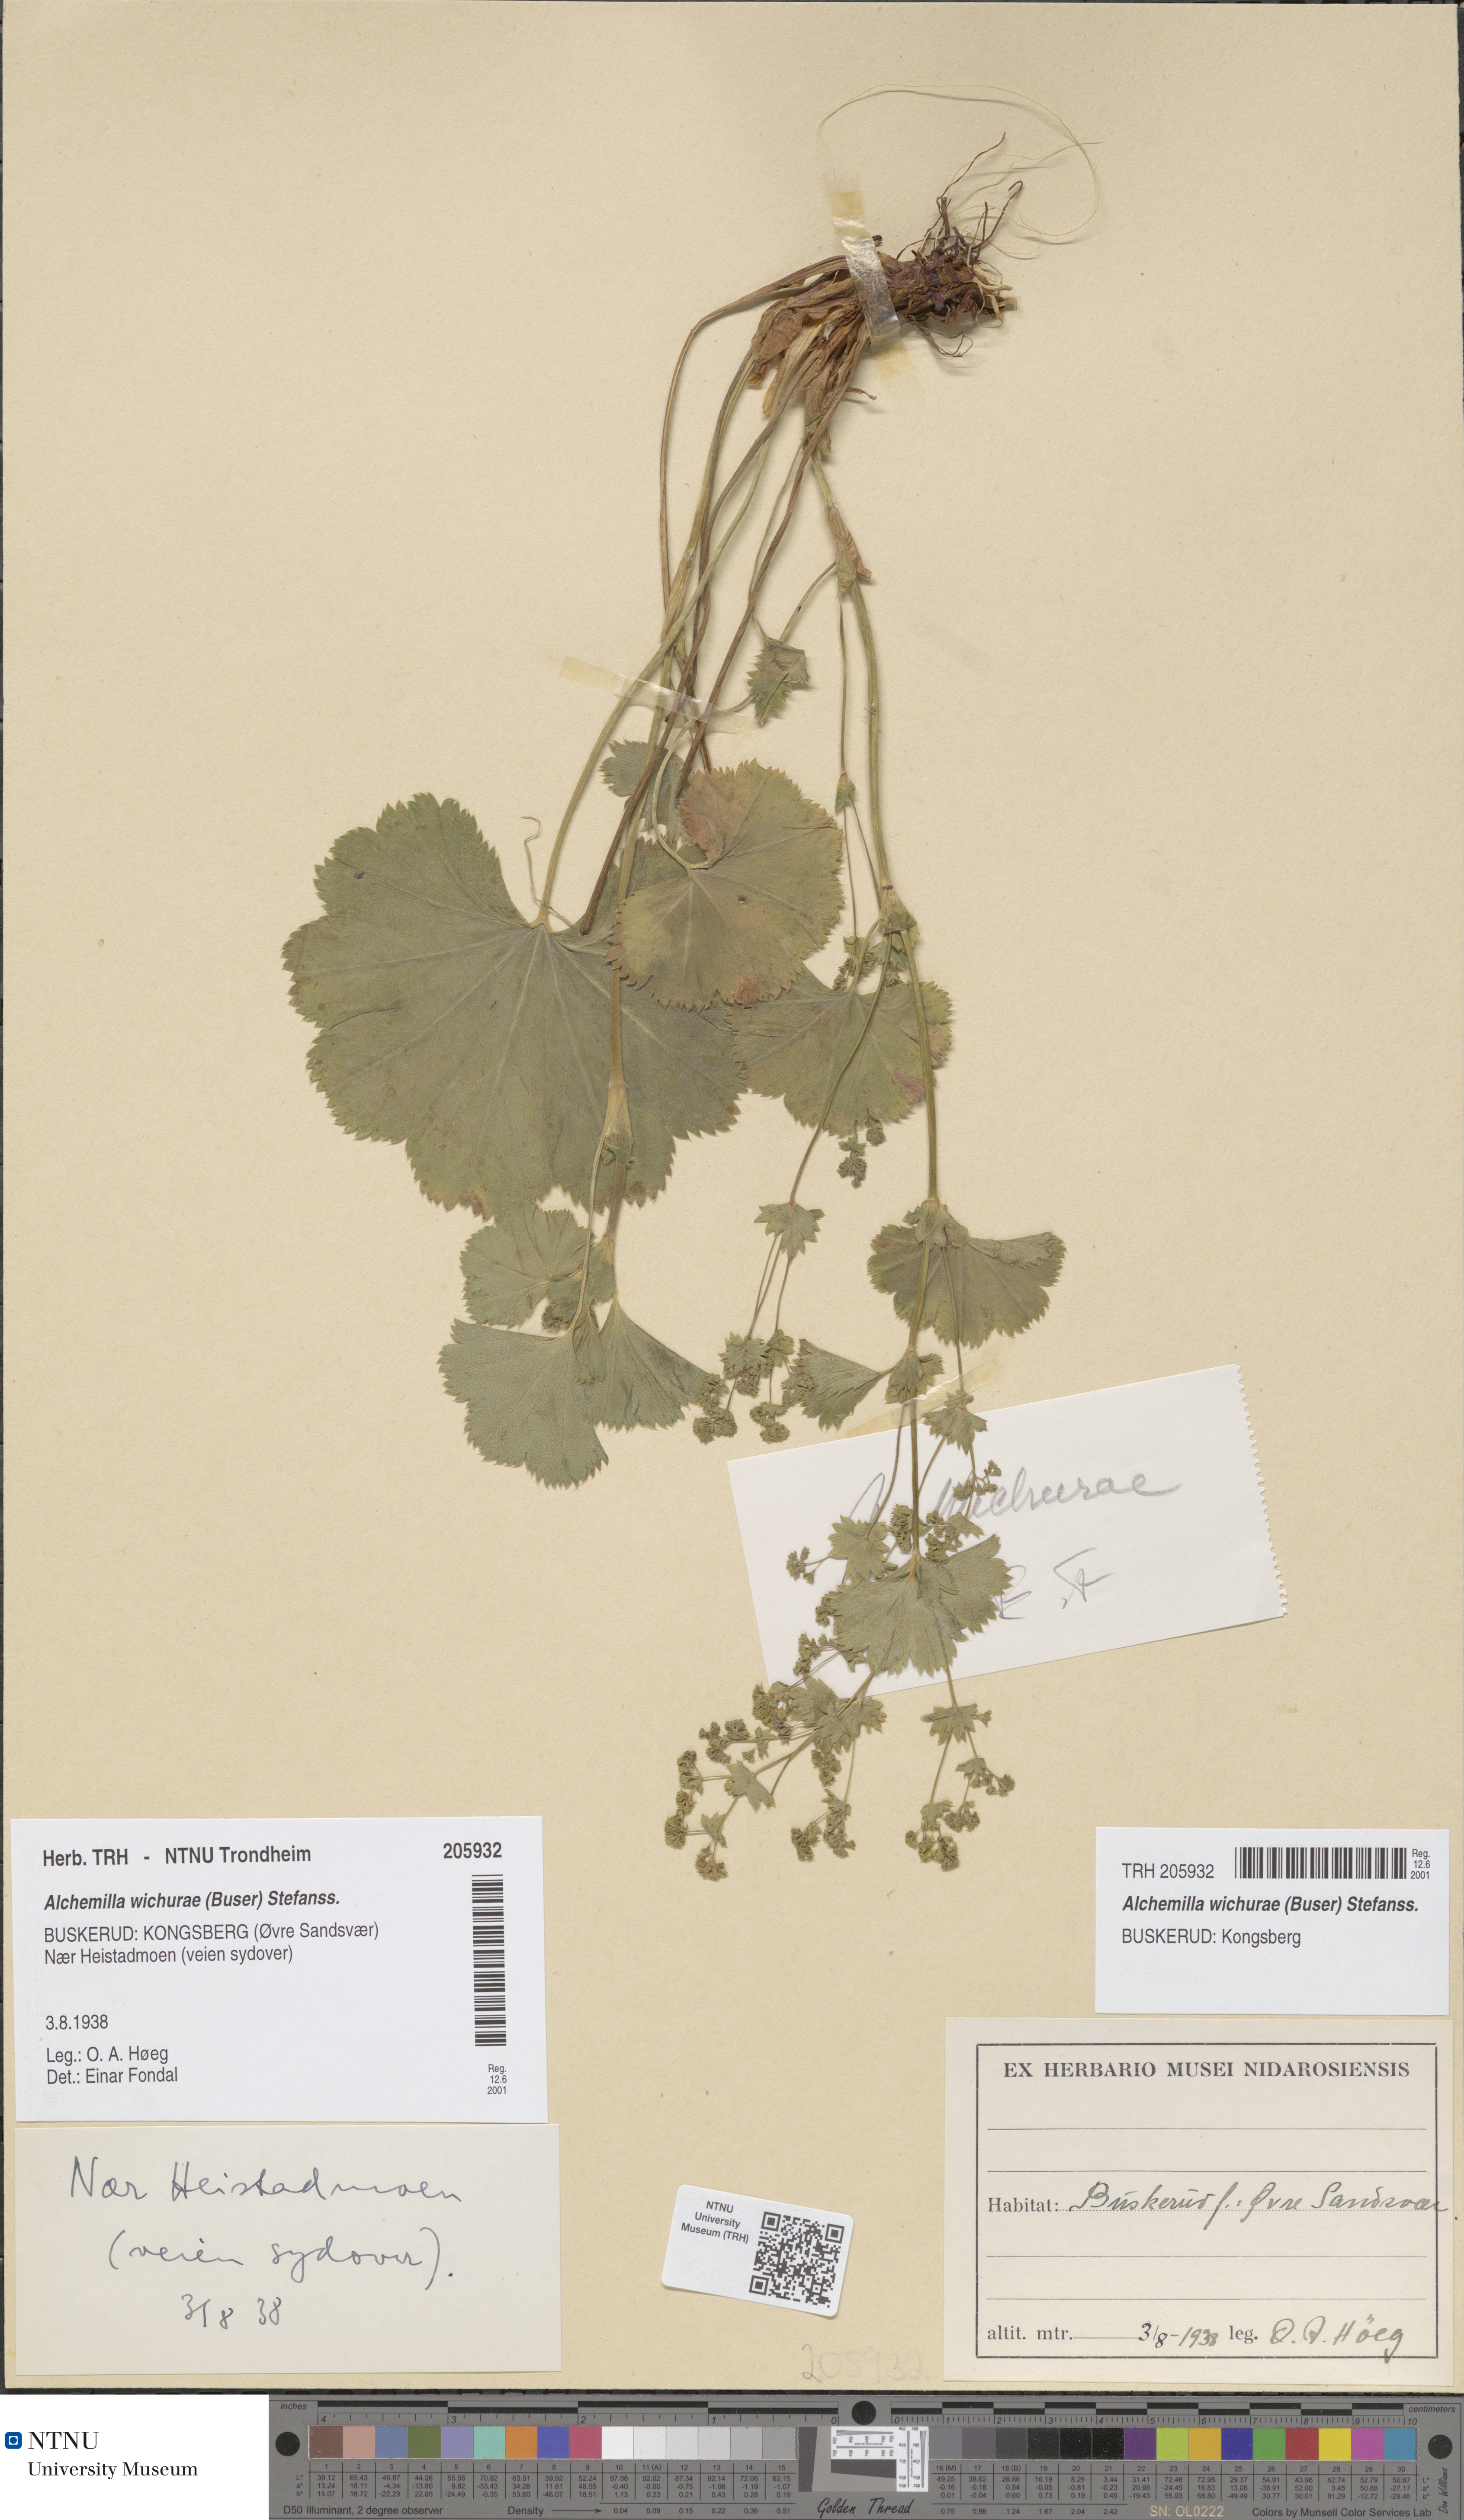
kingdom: Plantae
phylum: Tracheophyta
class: Magnoliopsida
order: Rosales
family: Rosaceae
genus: Alchemilla
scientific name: Alchemilla wichurae
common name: Rock lady's mantle
